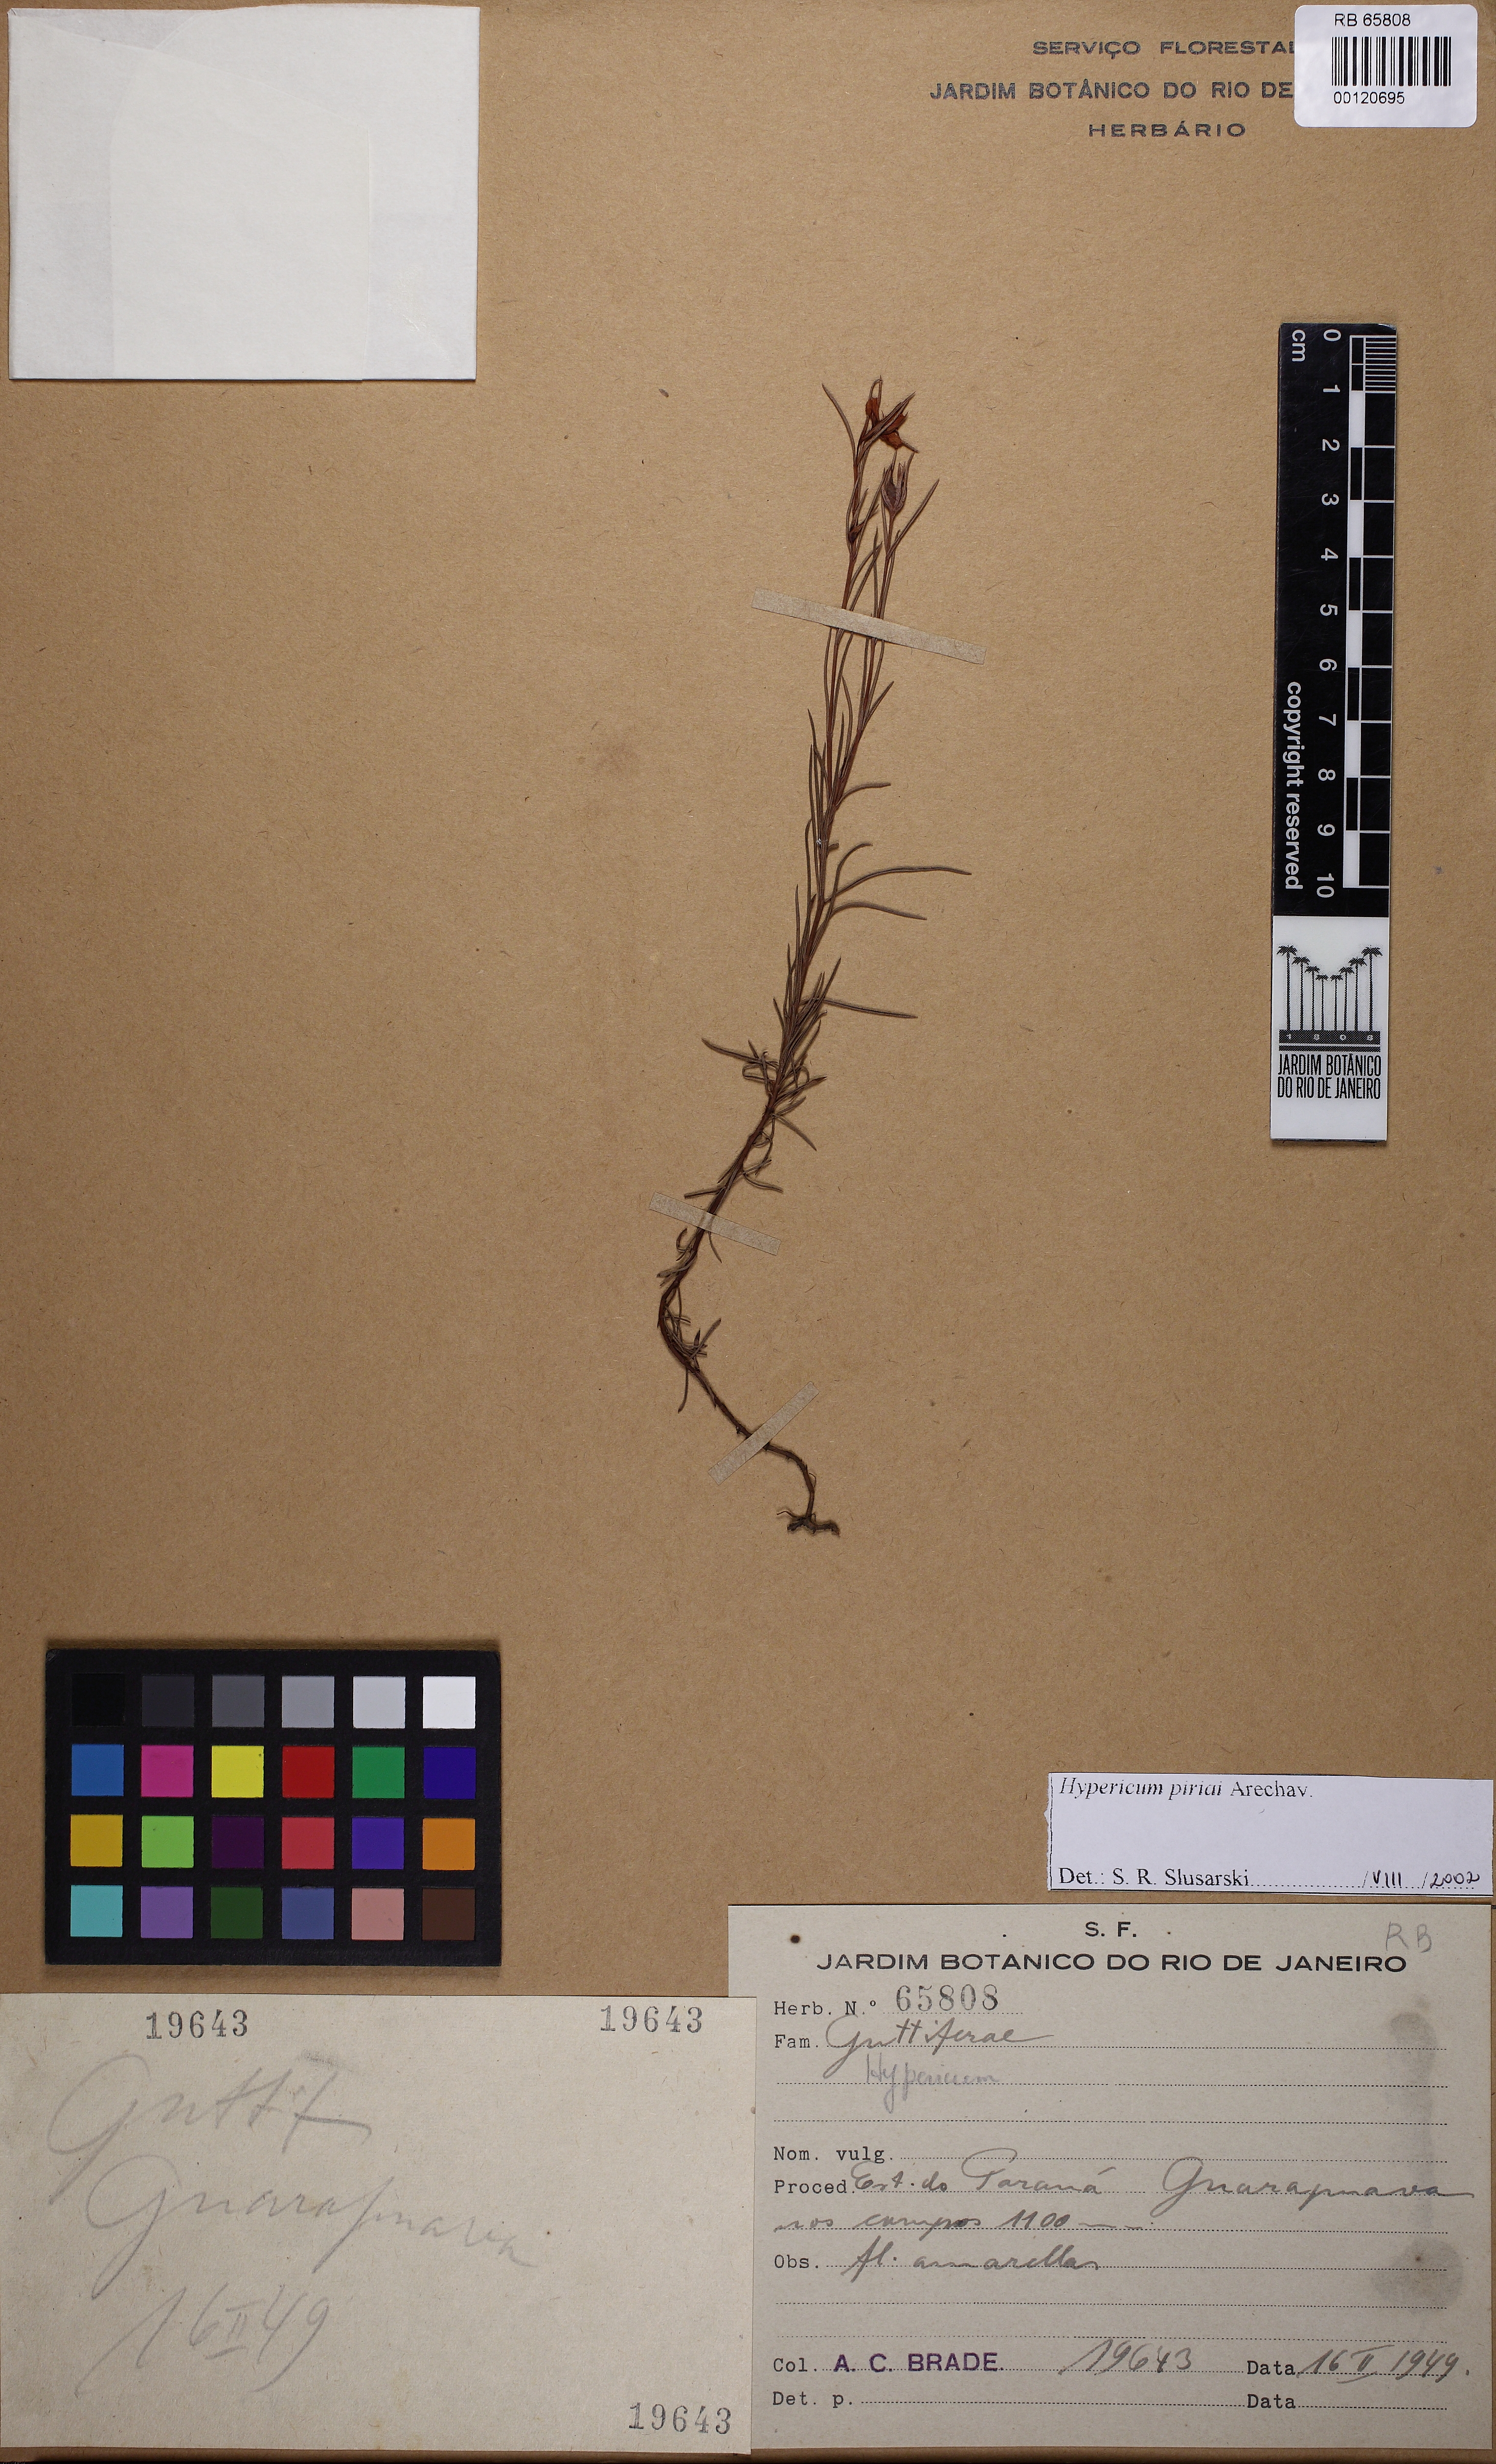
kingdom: Plantae
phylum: Tracheophyta
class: Magnoliopsida
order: Malpighiales
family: Hypericaceae
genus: Hypericum
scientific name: Hypericum piriai
